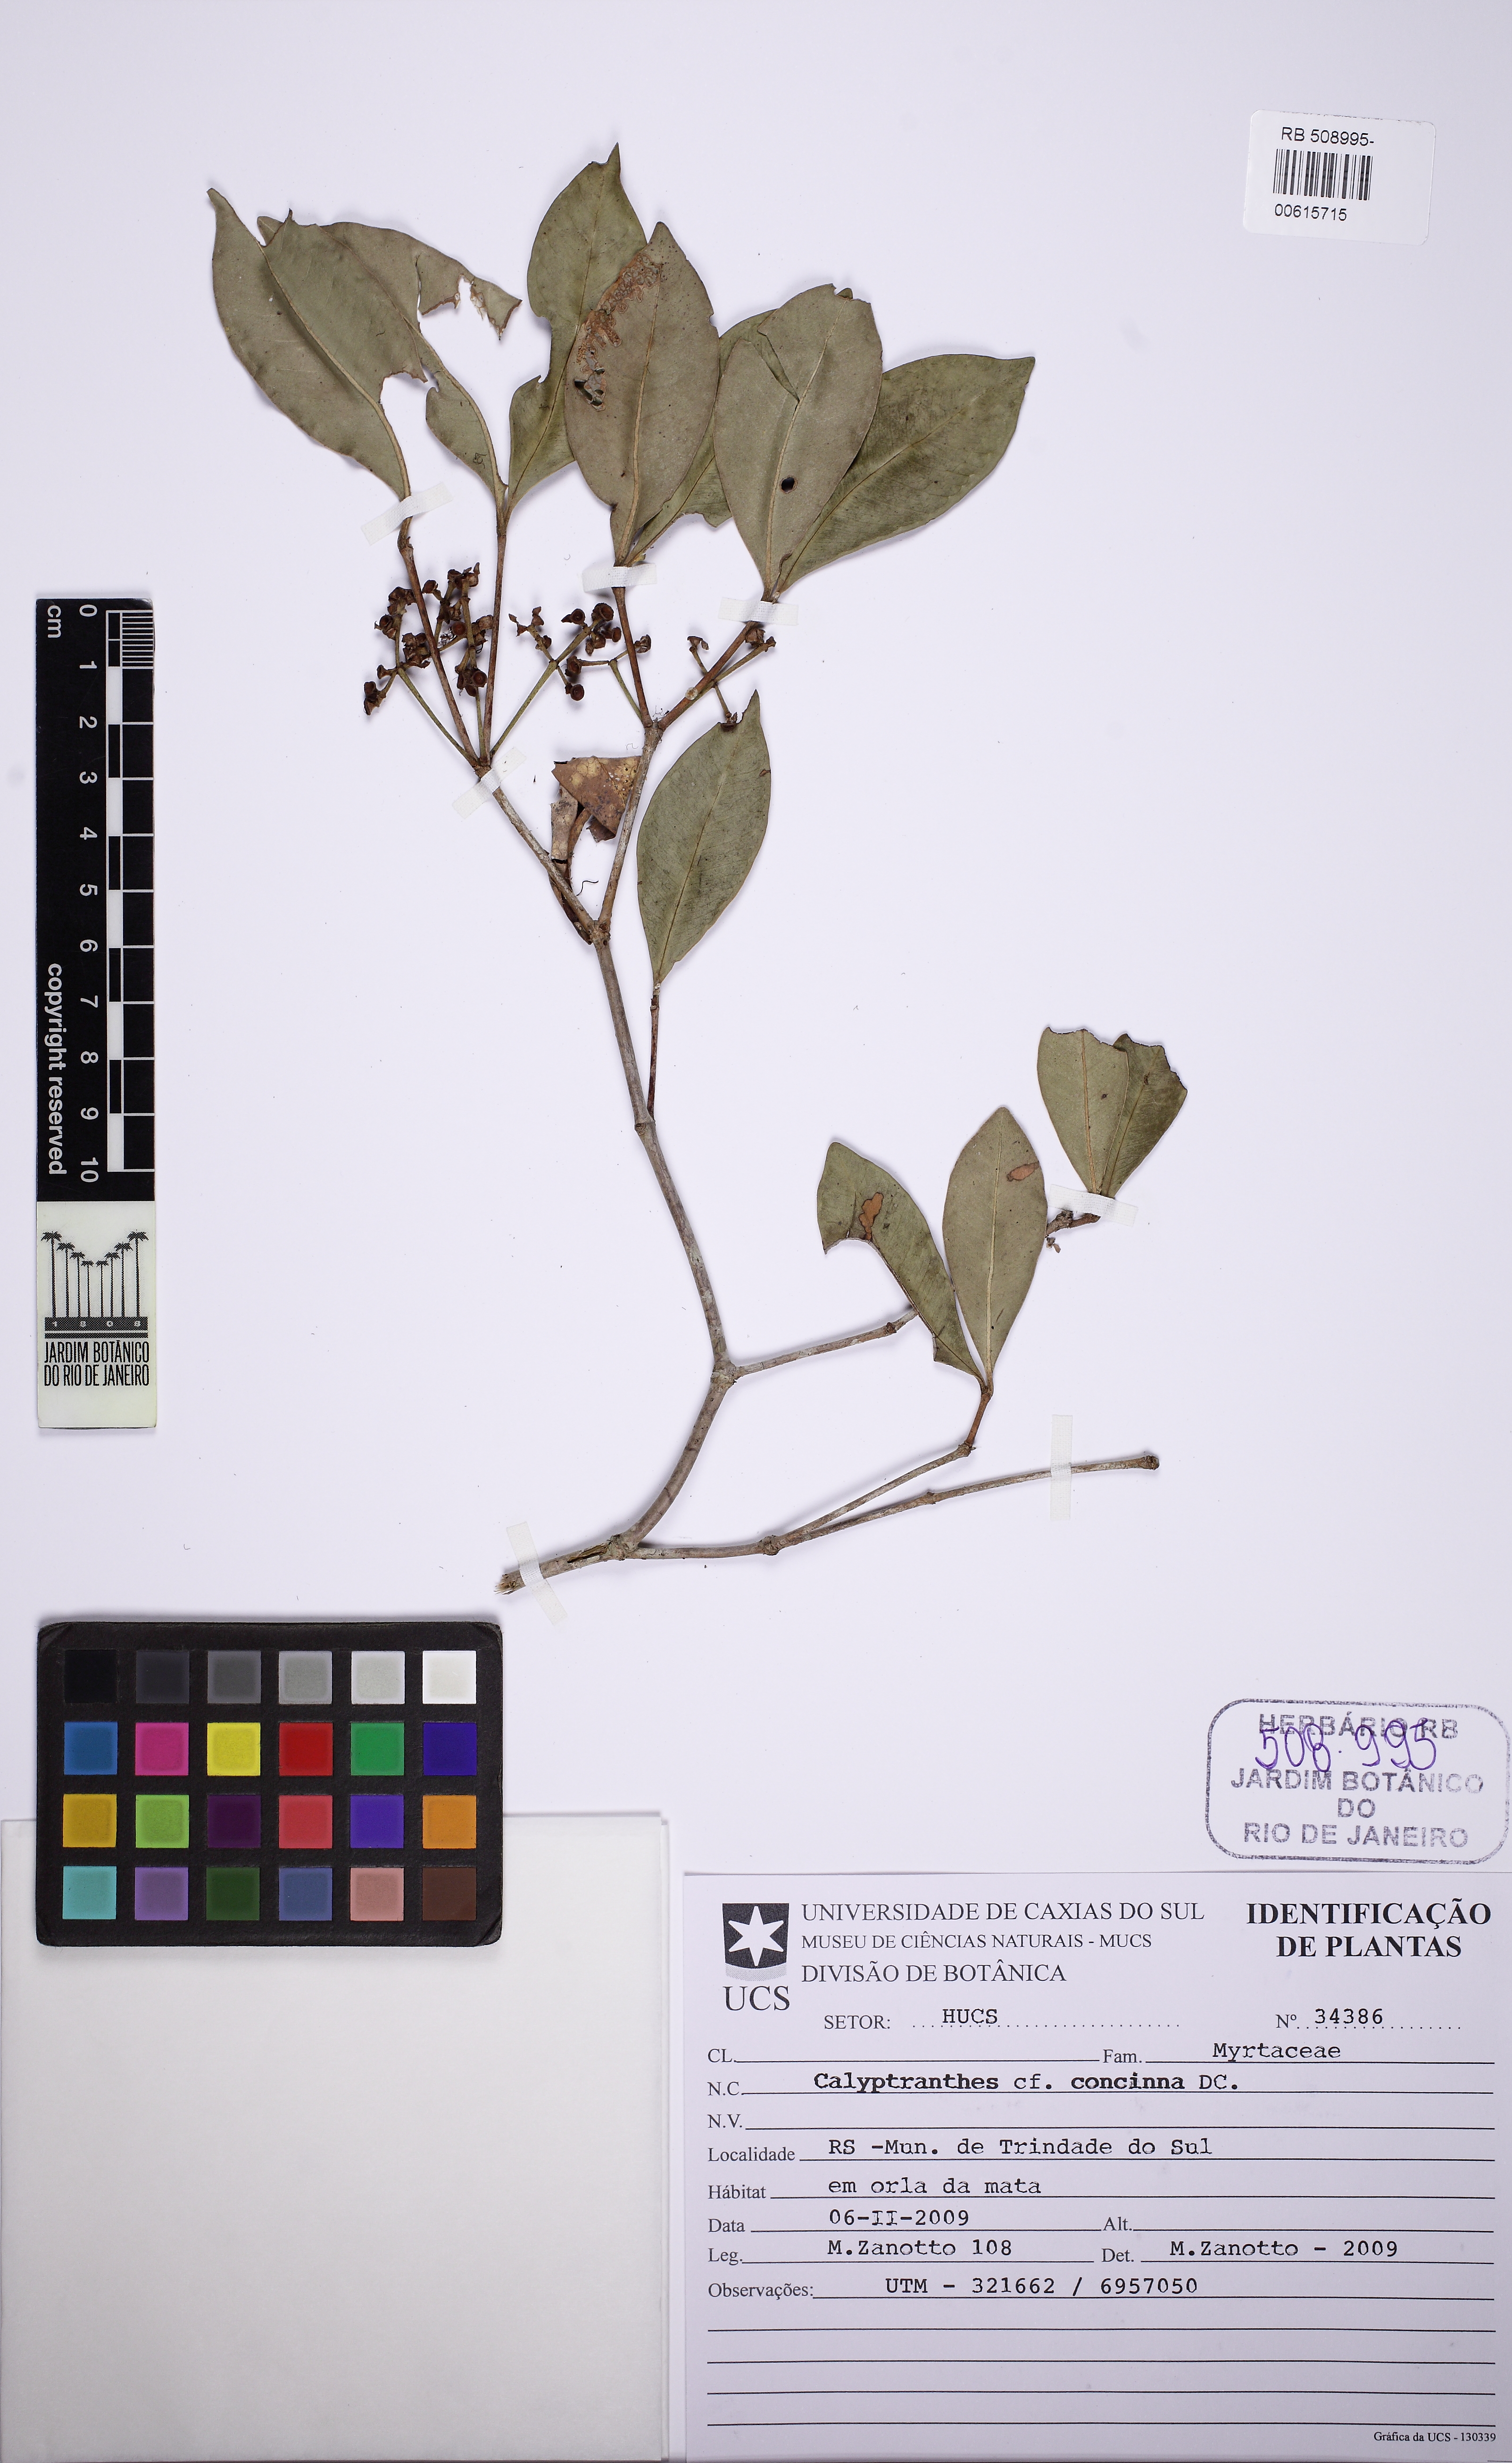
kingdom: Plantae
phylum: Tracheophyta
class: Magnoliopsida
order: Myrtales
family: Myrtaceae
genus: Myrcia
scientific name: Myrcia cruciflora
